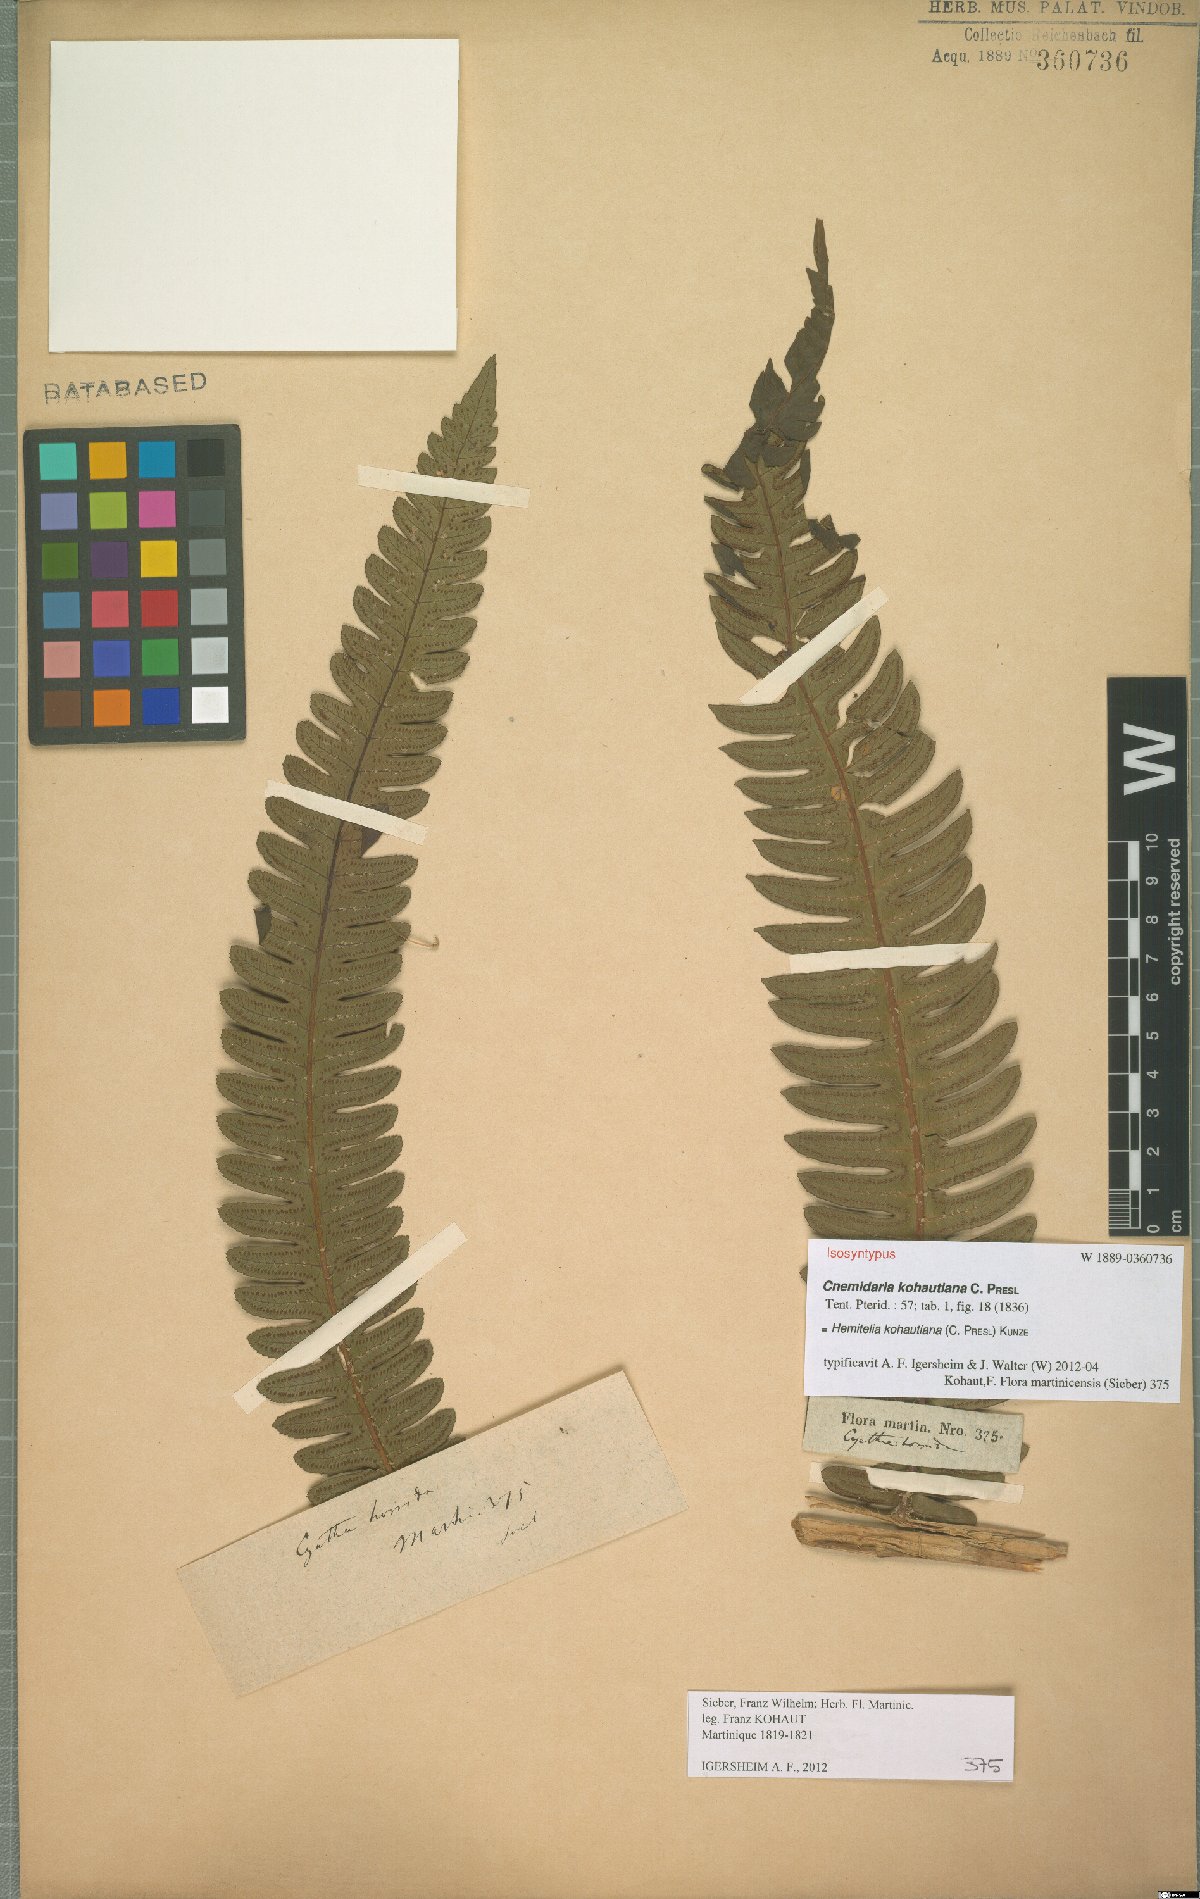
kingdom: Plantae
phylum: Tracheophyta
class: Polypodiopsida
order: Cyatheales
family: Cyatheaceae
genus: Cyathea
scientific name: Cyathea grandifolia
